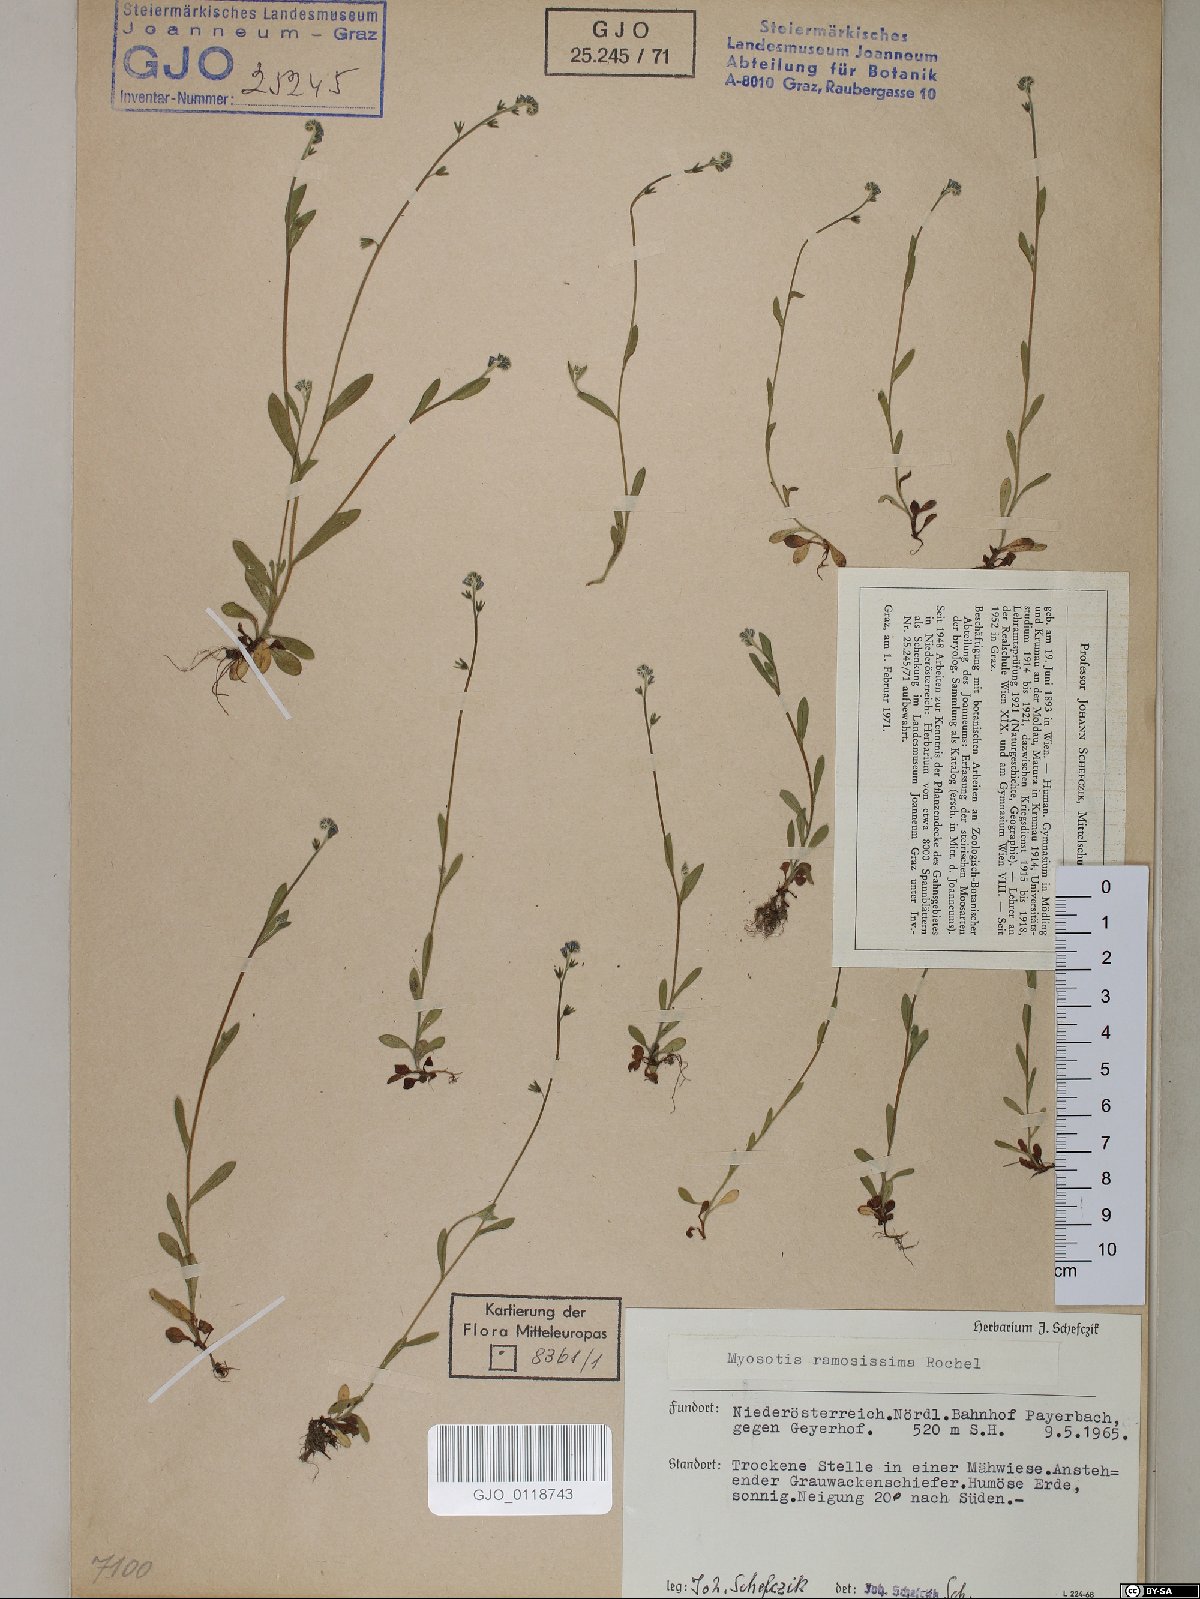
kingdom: Plantae
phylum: Tracheophyta
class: Magnoliopsida
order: Boraginales
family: Boraginaceae
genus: Myosotis
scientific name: Myosotis ramosissima
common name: Early forget-me-not
